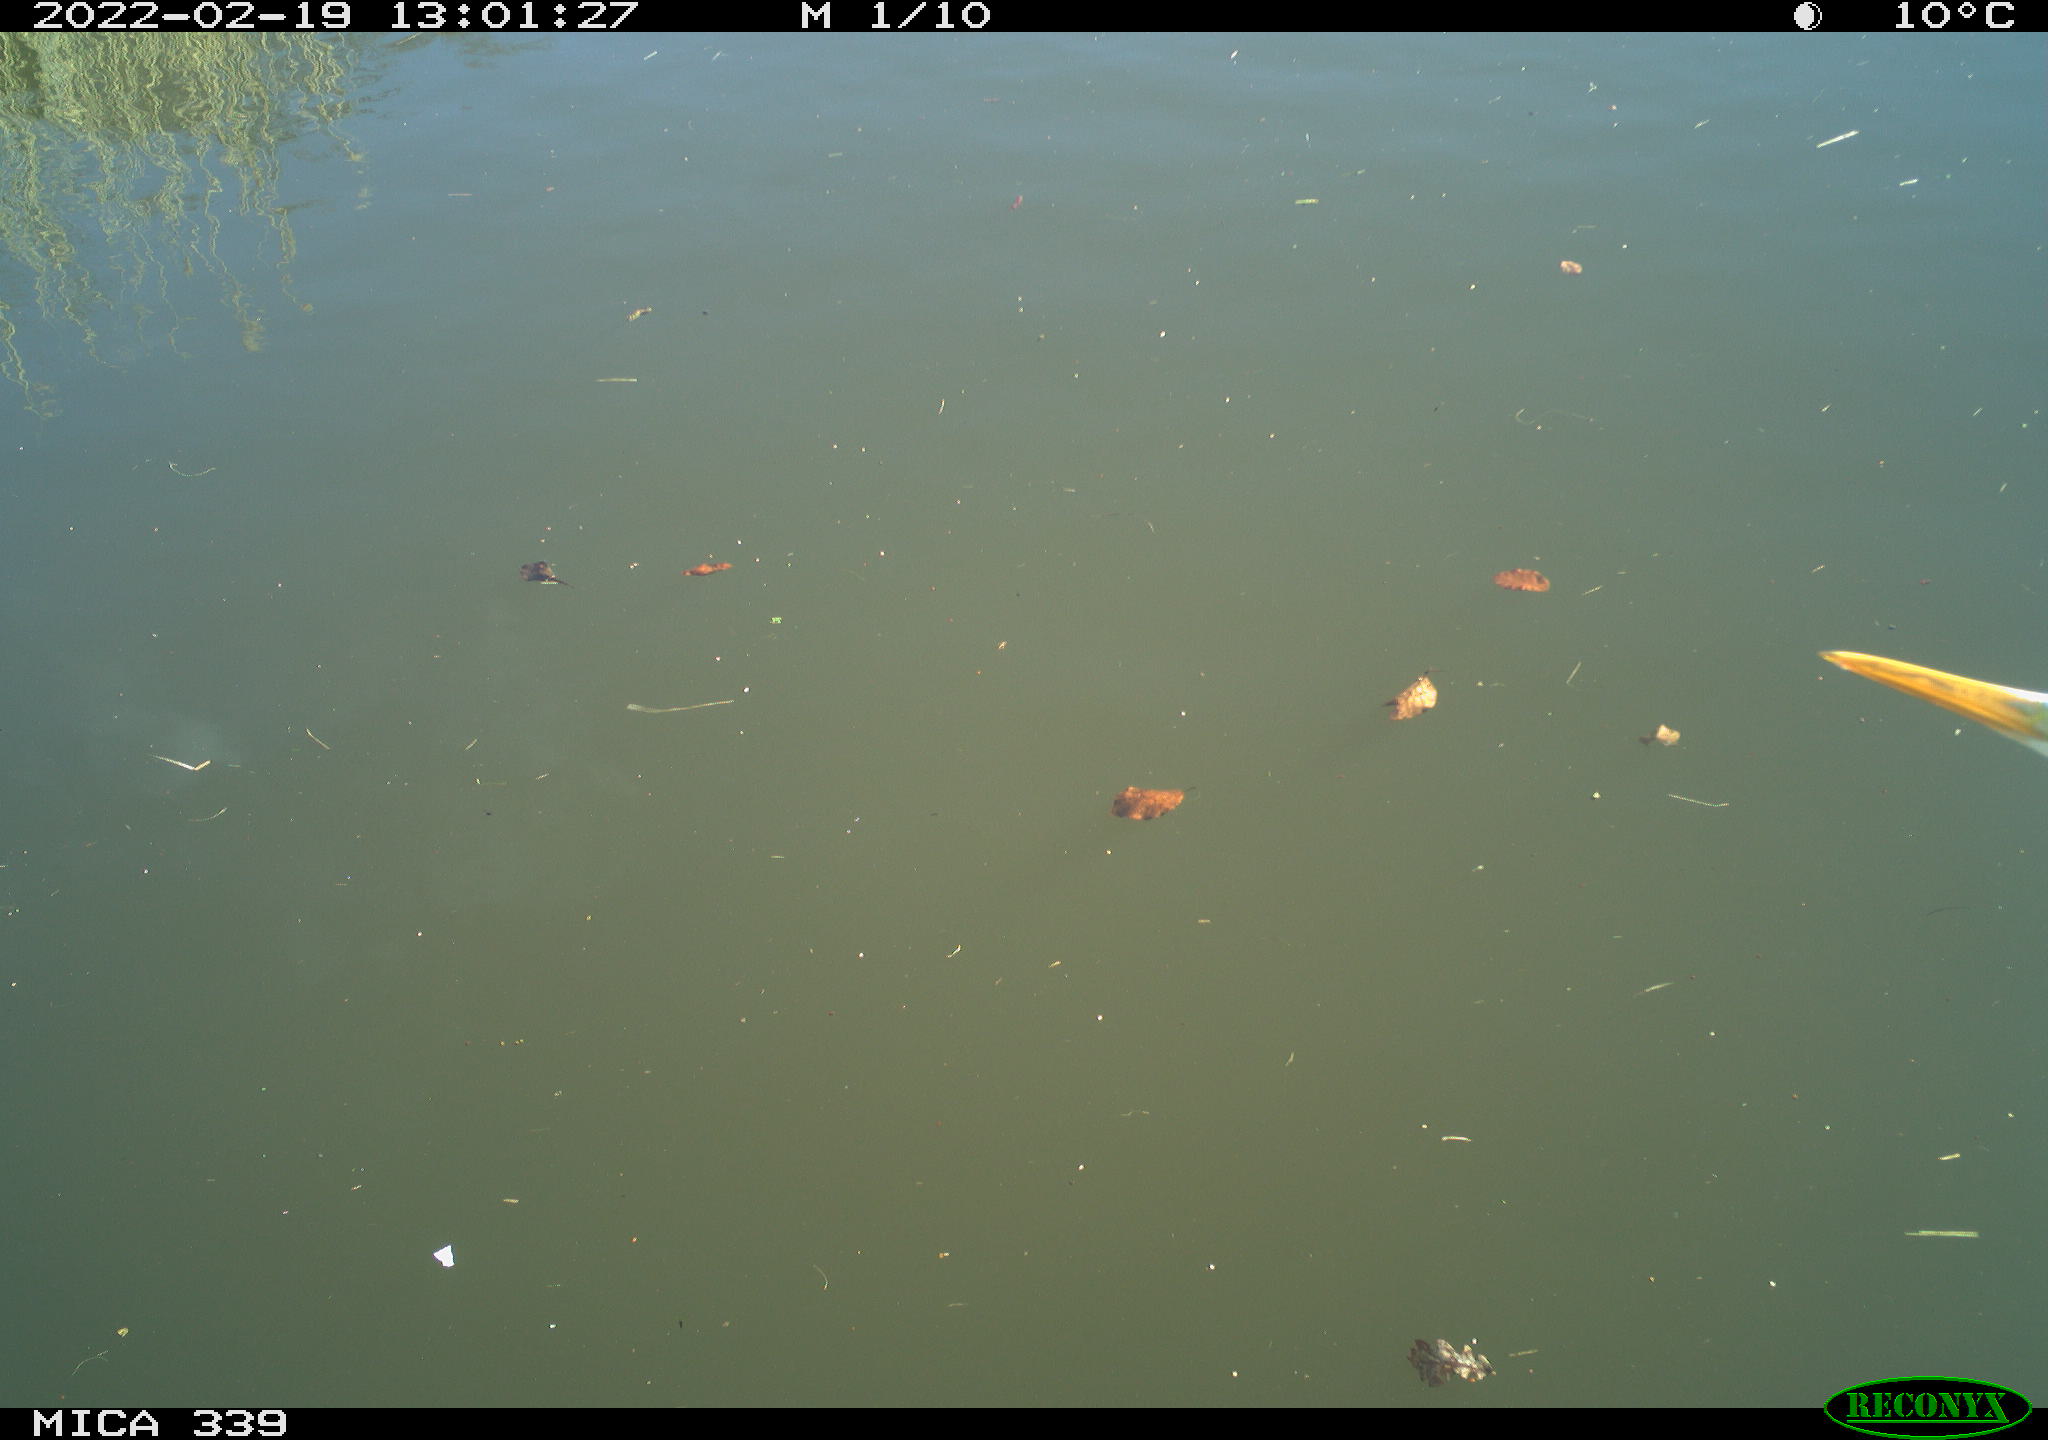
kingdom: Animalia
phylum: Chordata
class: Aves
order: Pelecaniformes
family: Ardeidae
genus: Ardea
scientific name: Ardea alba
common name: Great egret
